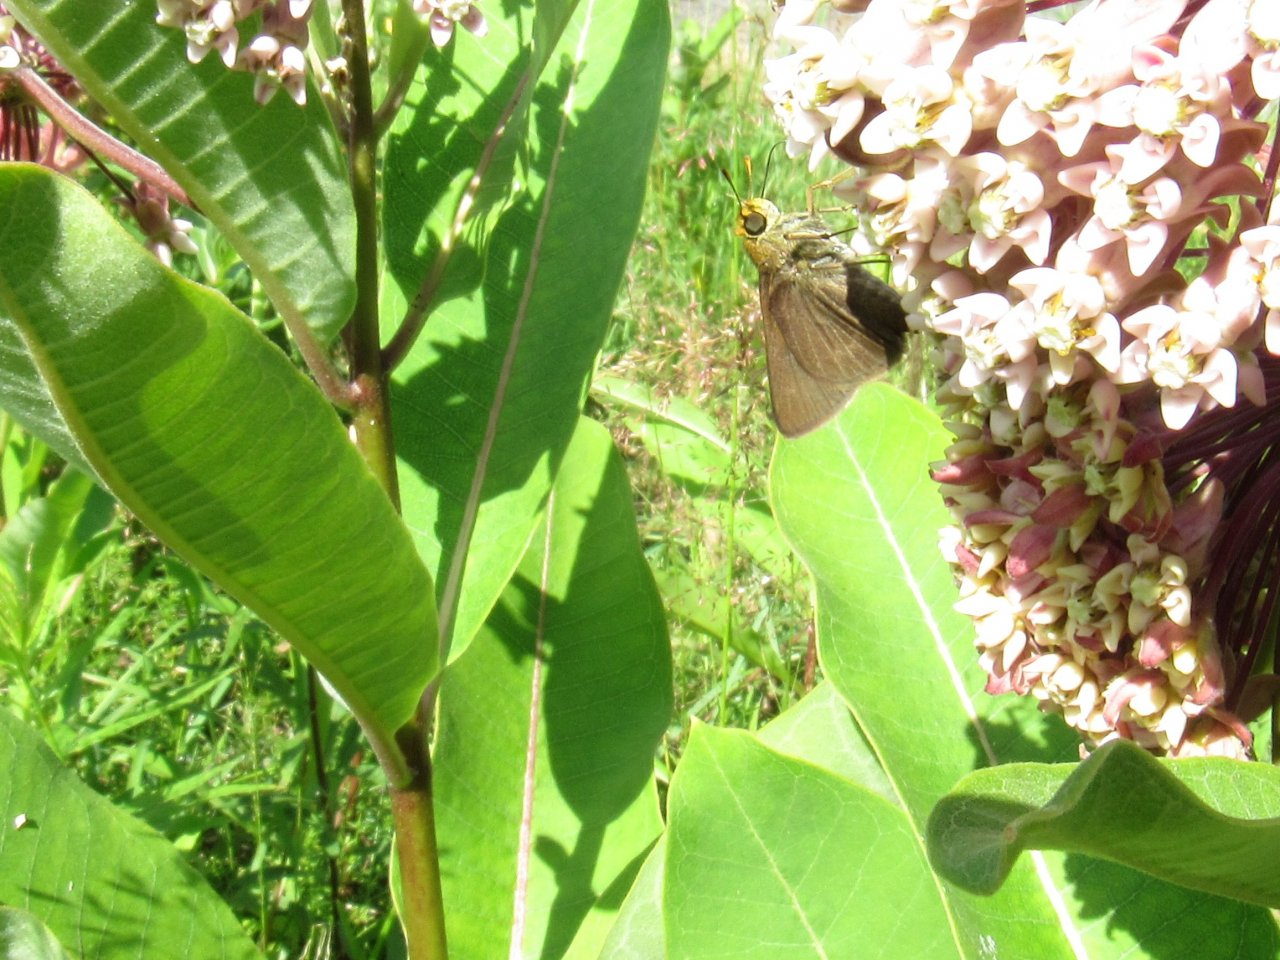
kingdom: Animalia
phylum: Arthropoda
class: Insecta
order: Lepidoptera
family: Hesperiidae
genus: Vernia
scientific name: Vernia verna
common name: Little Glassywing
